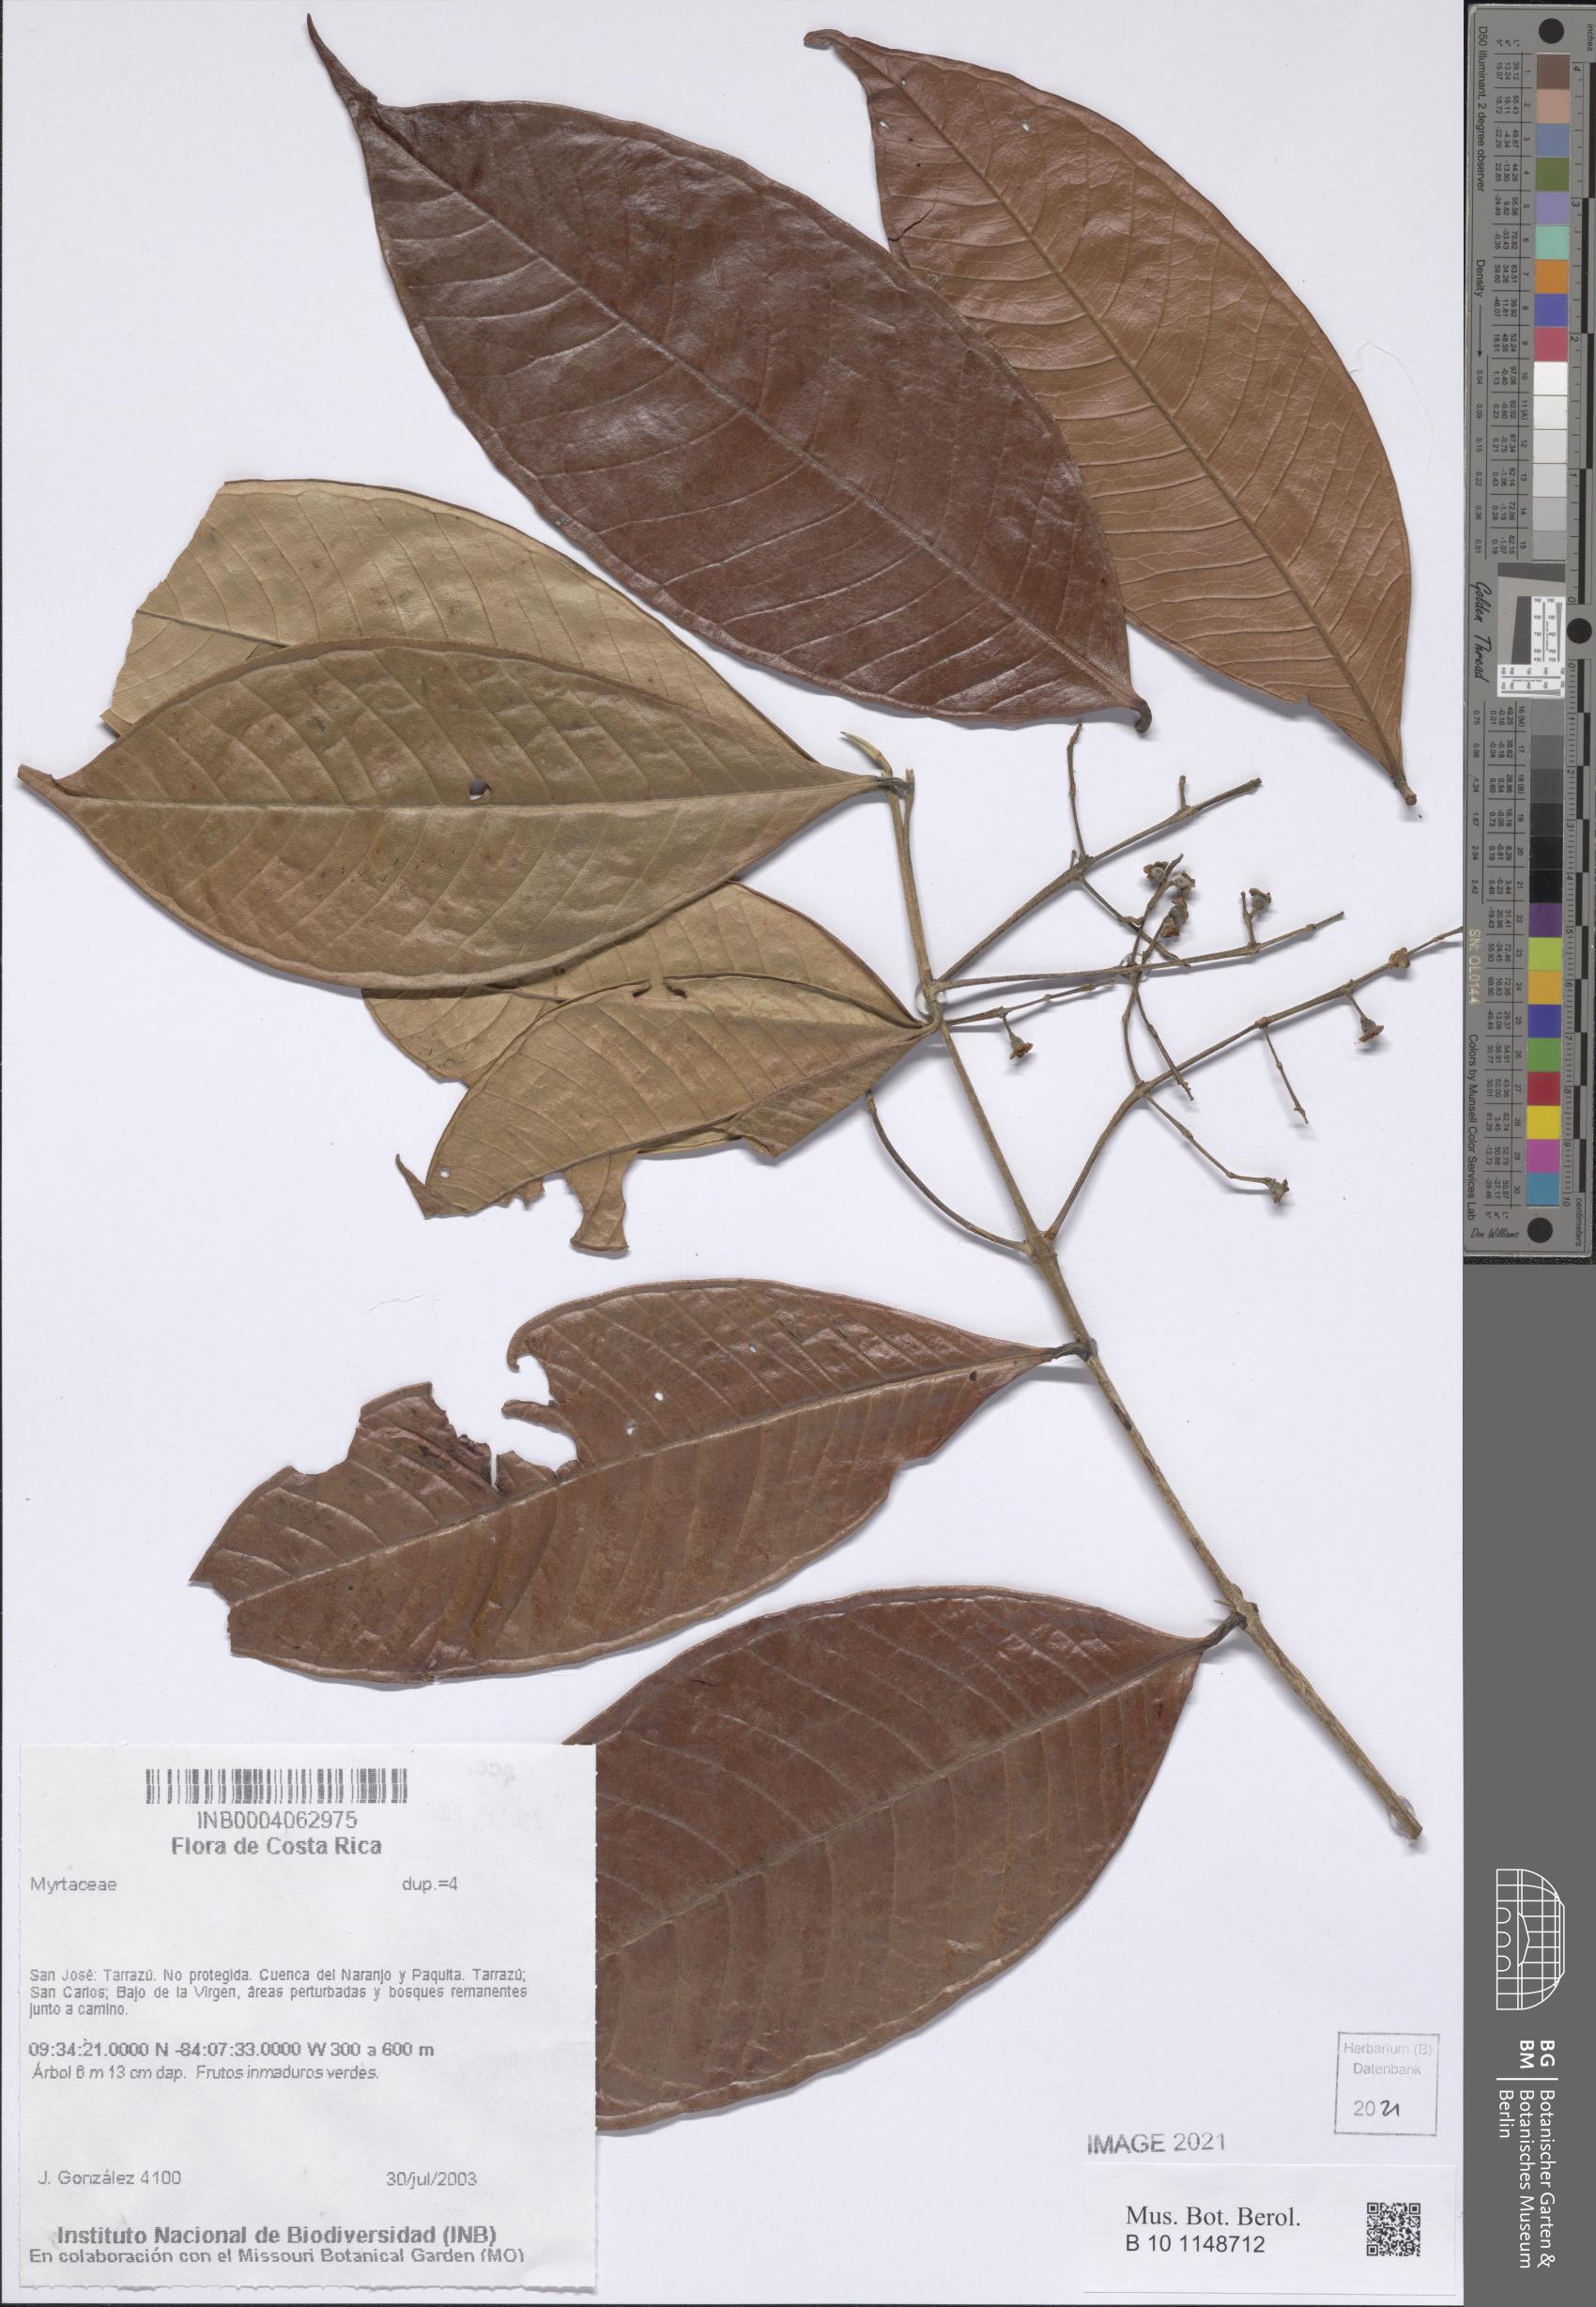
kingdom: Plantae
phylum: Tracheophyta
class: Magnoliopsida
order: Myrtales
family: Myrtaceae
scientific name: Myrtaceae
